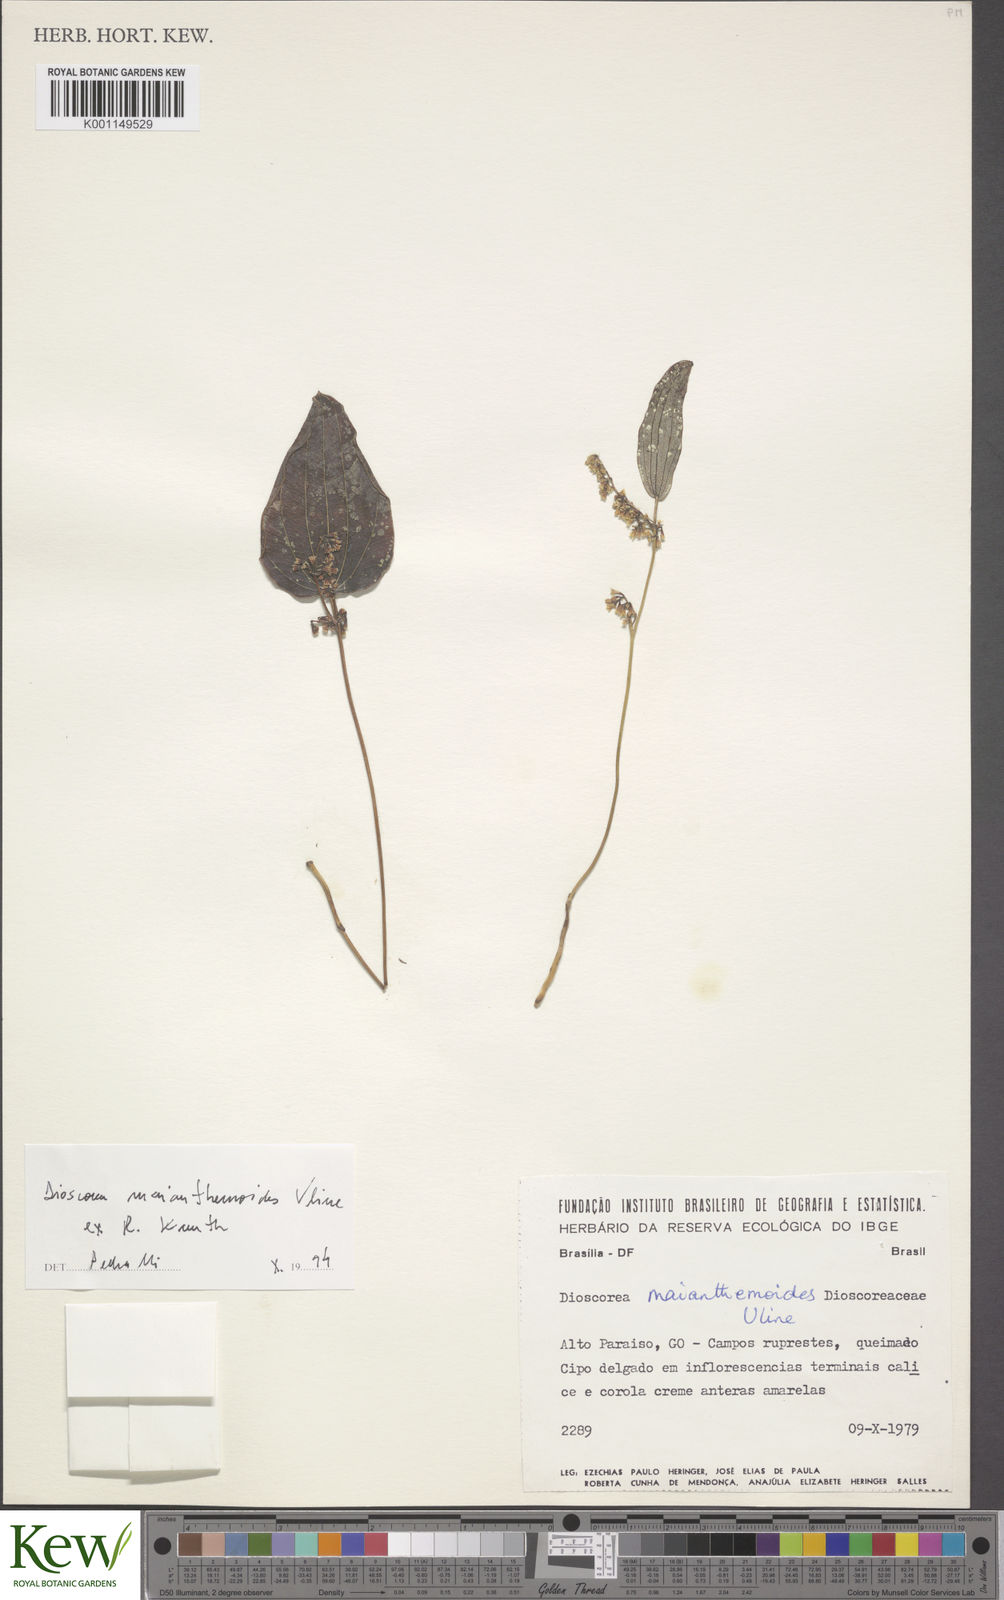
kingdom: Plantae
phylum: Tracheophyta
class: Liliopsida
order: Dioscoreales
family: Dioscoreaceae
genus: Dioscorea
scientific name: Dioscorea maianthemoides
